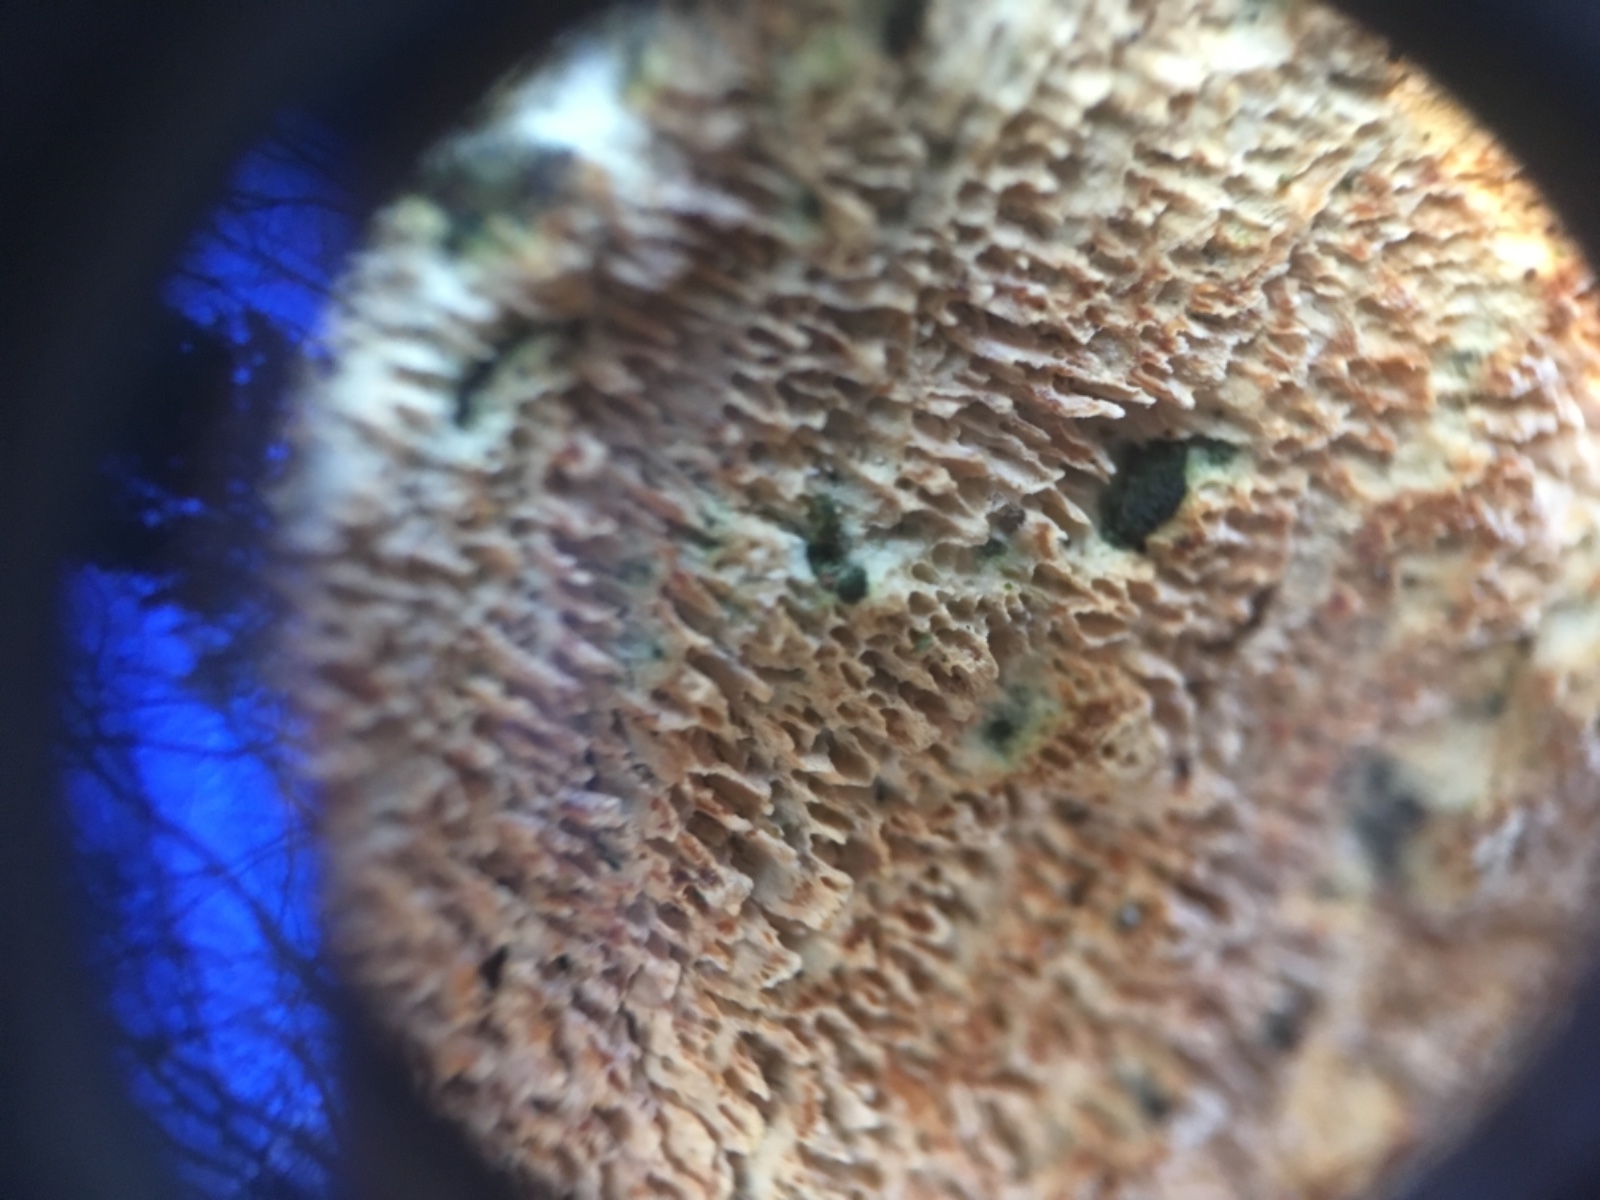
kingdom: Fungi
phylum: Basidiomycota
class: Agaricomycetes
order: Polyporales
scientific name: Polyporales
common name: poresvampordenen
